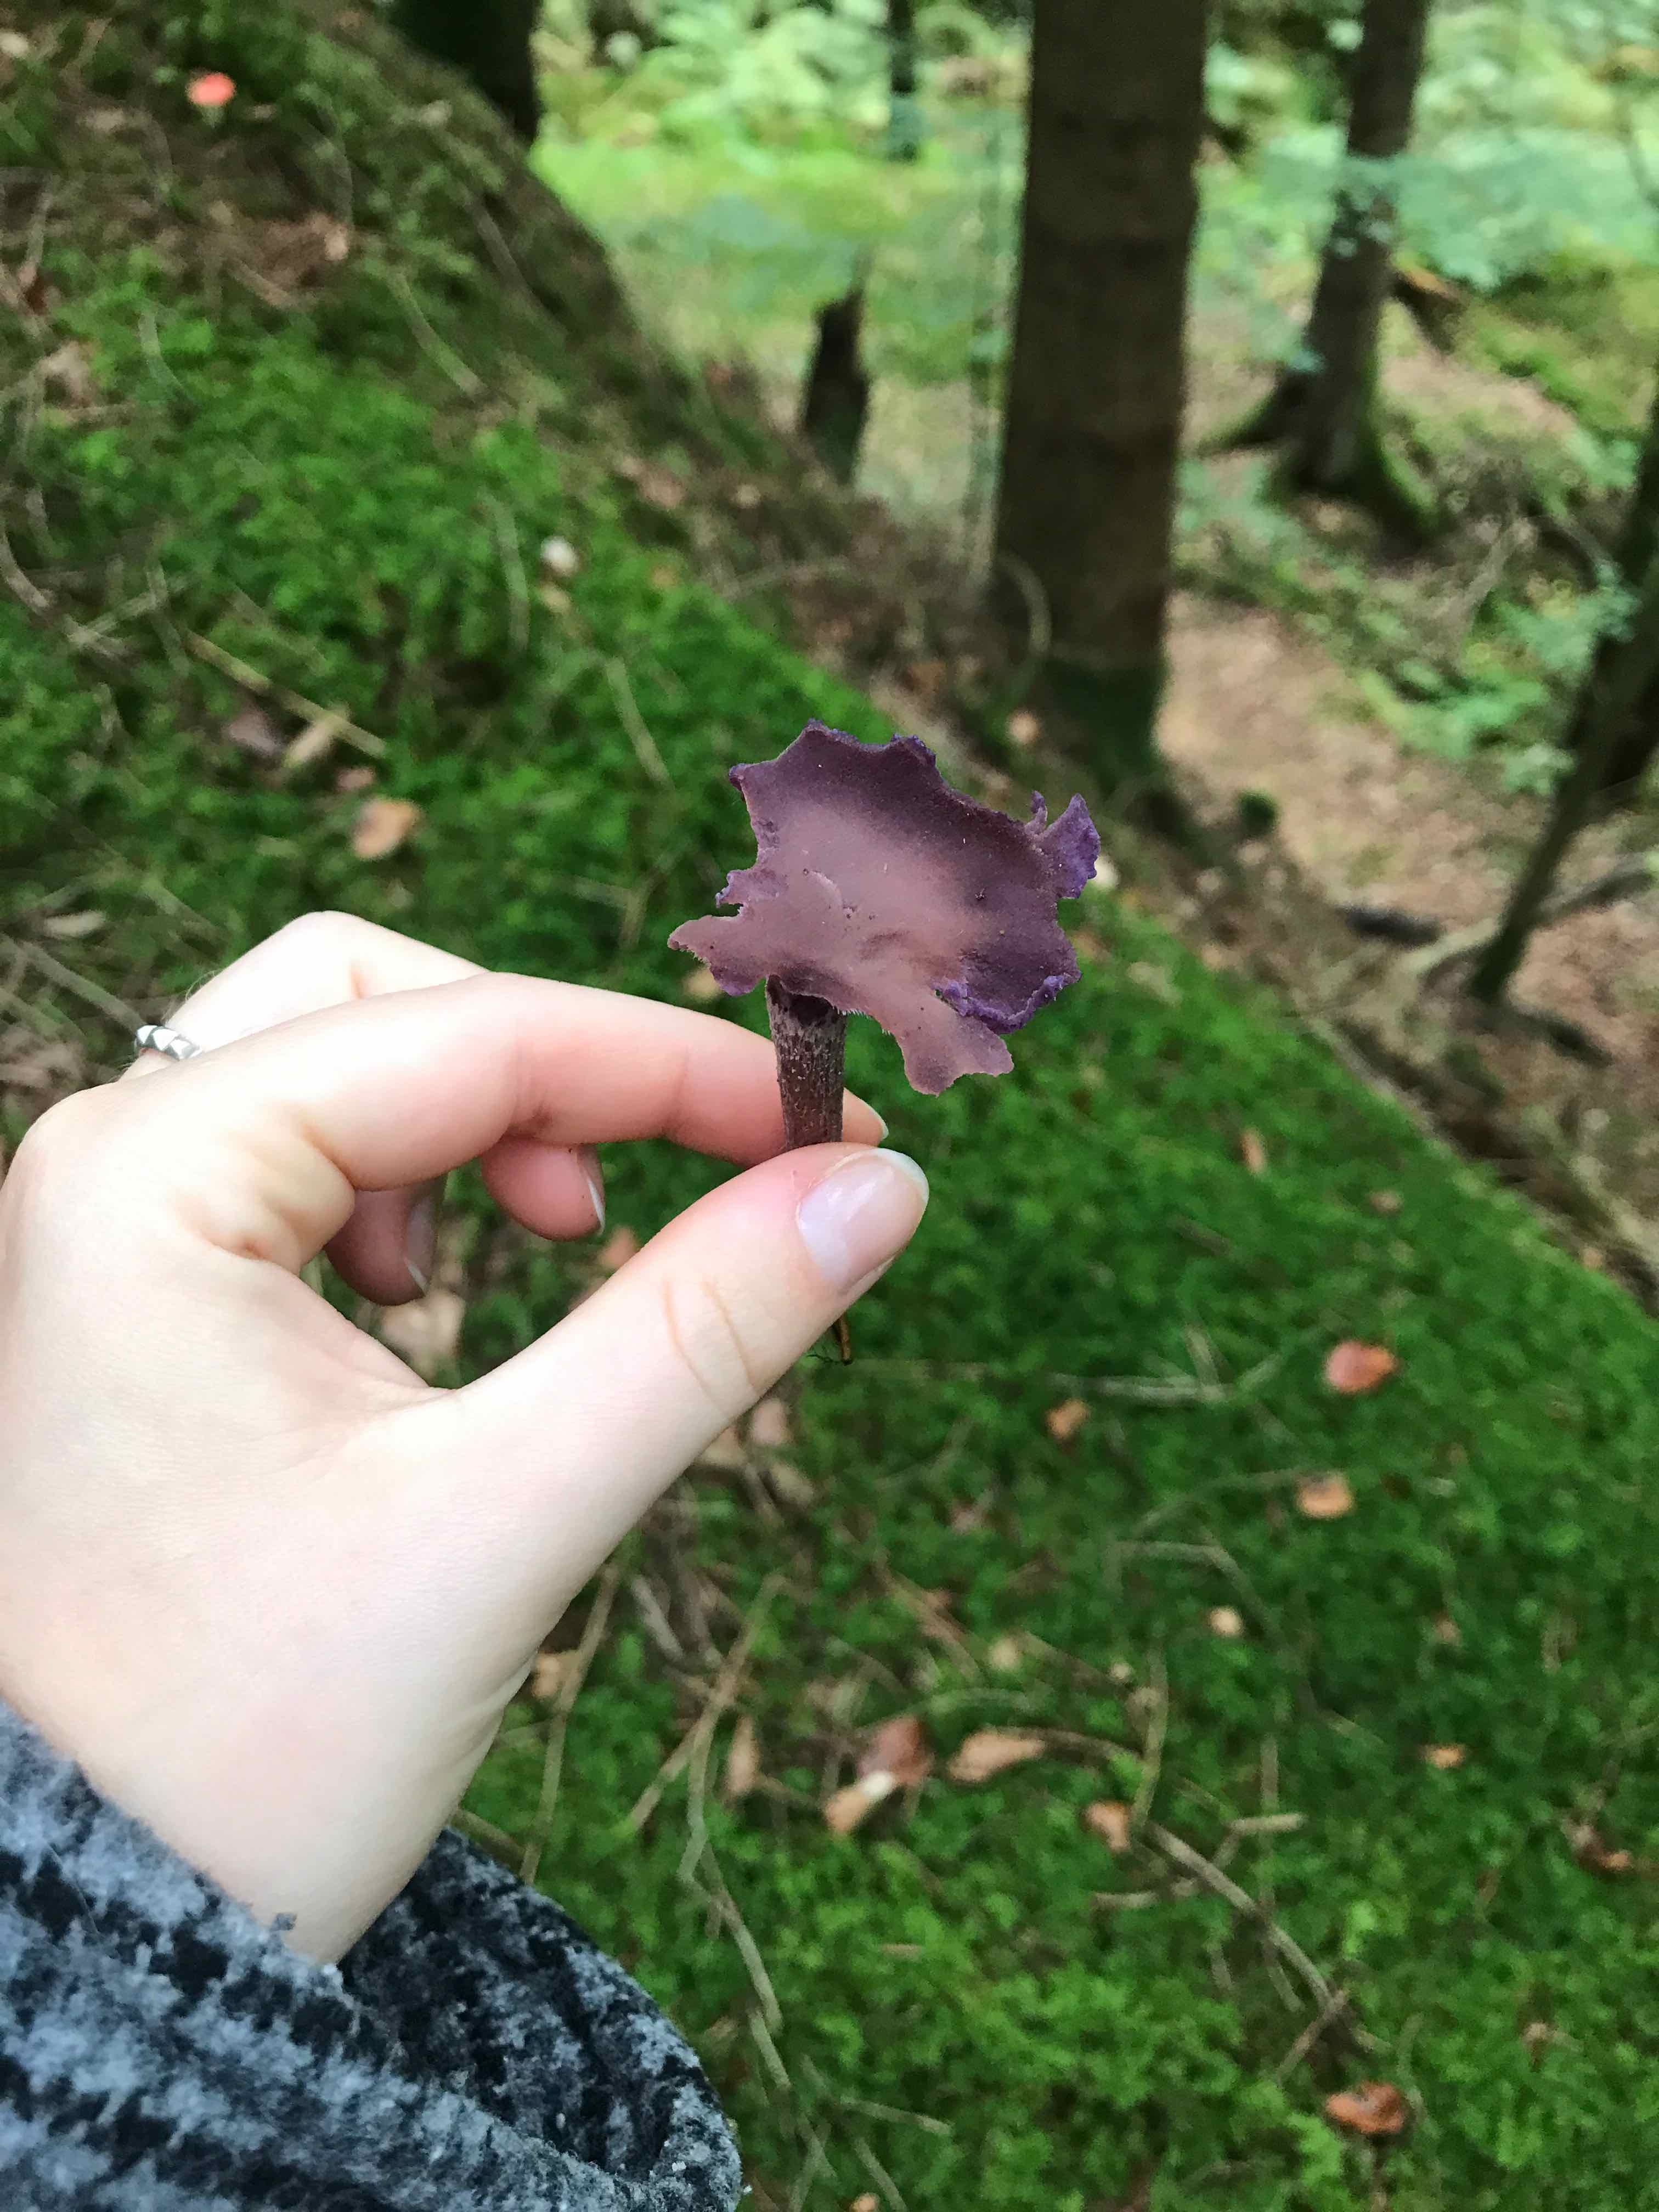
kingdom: Fungi
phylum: Basidiomycota
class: Agaricomycetes
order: Agaricales
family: Hydnangiaceae
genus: Laccaria
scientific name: Laccaria amethystina
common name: violet ametysthat
